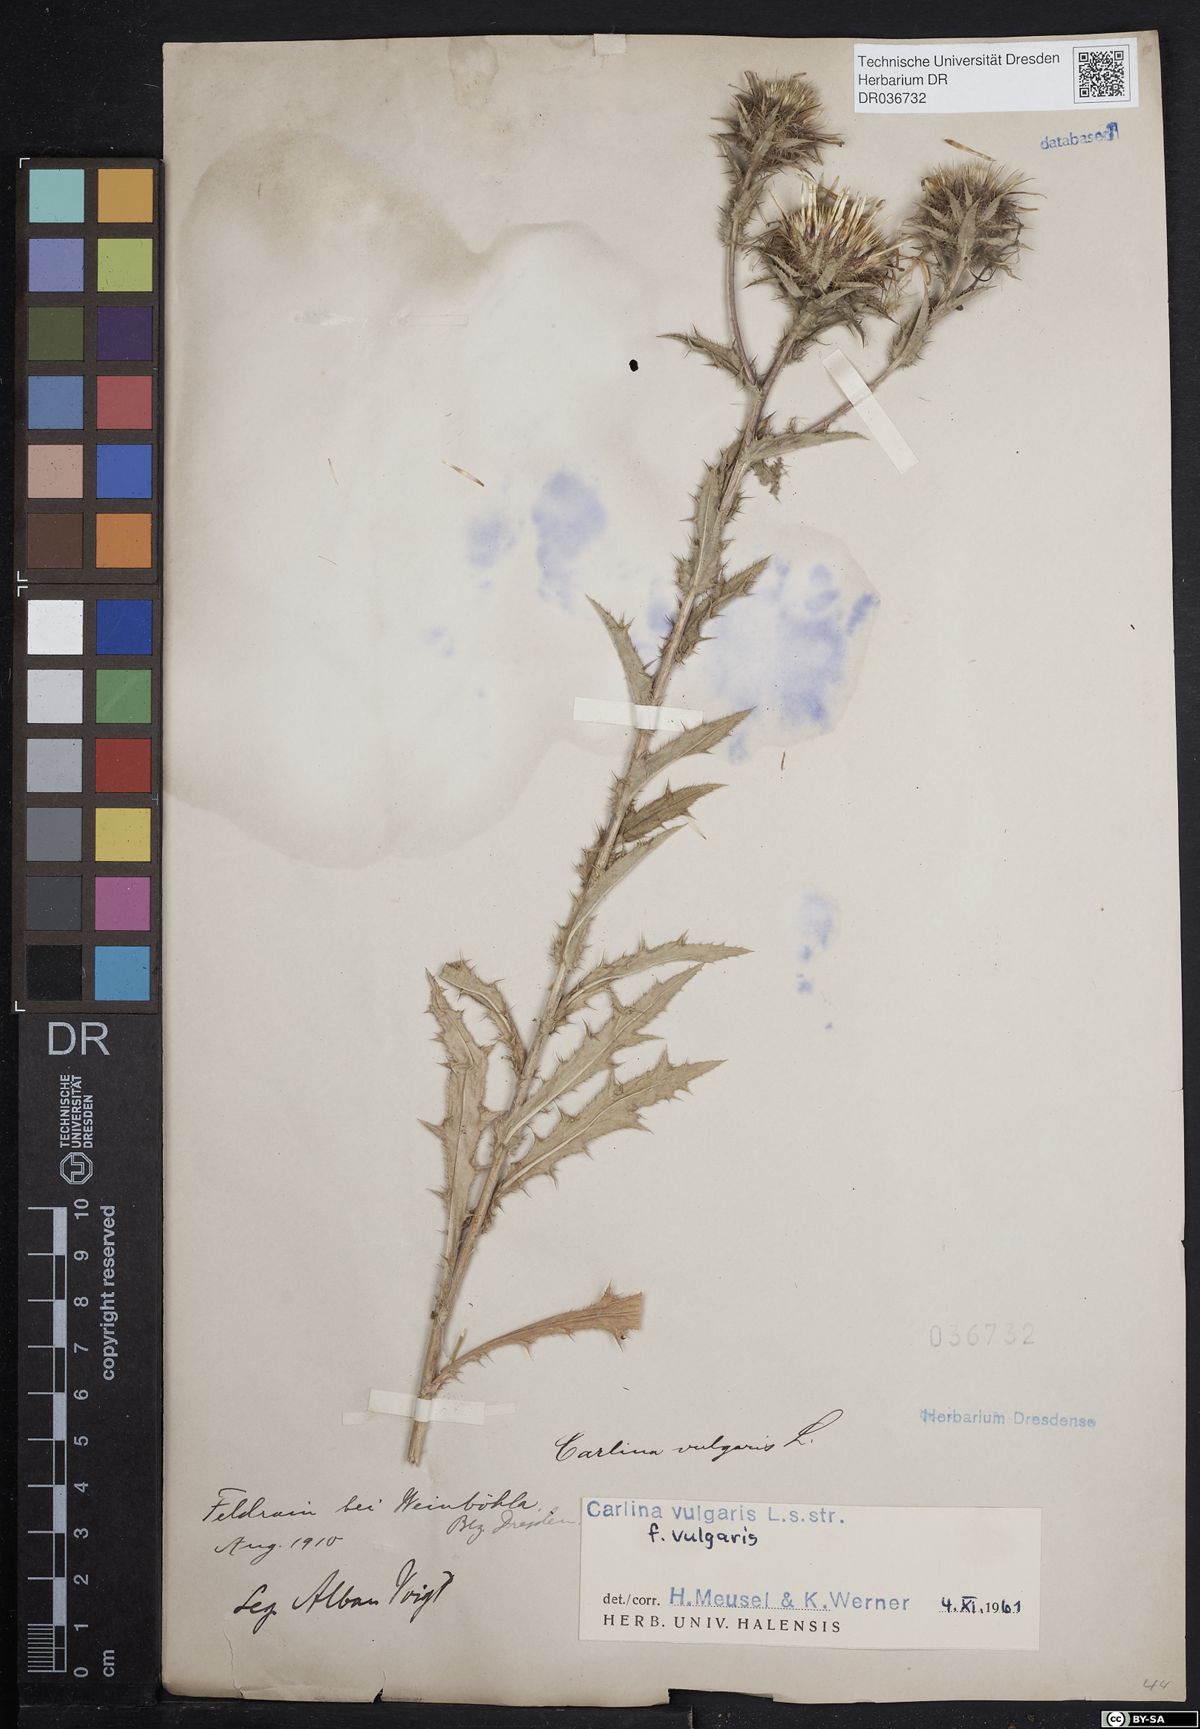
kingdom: Plantae
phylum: Tracheophyta
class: Magnoliopsida
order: Asterales
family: Asteraceae
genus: Carlina
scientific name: Carlina vulgaris
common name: Carline thistle
